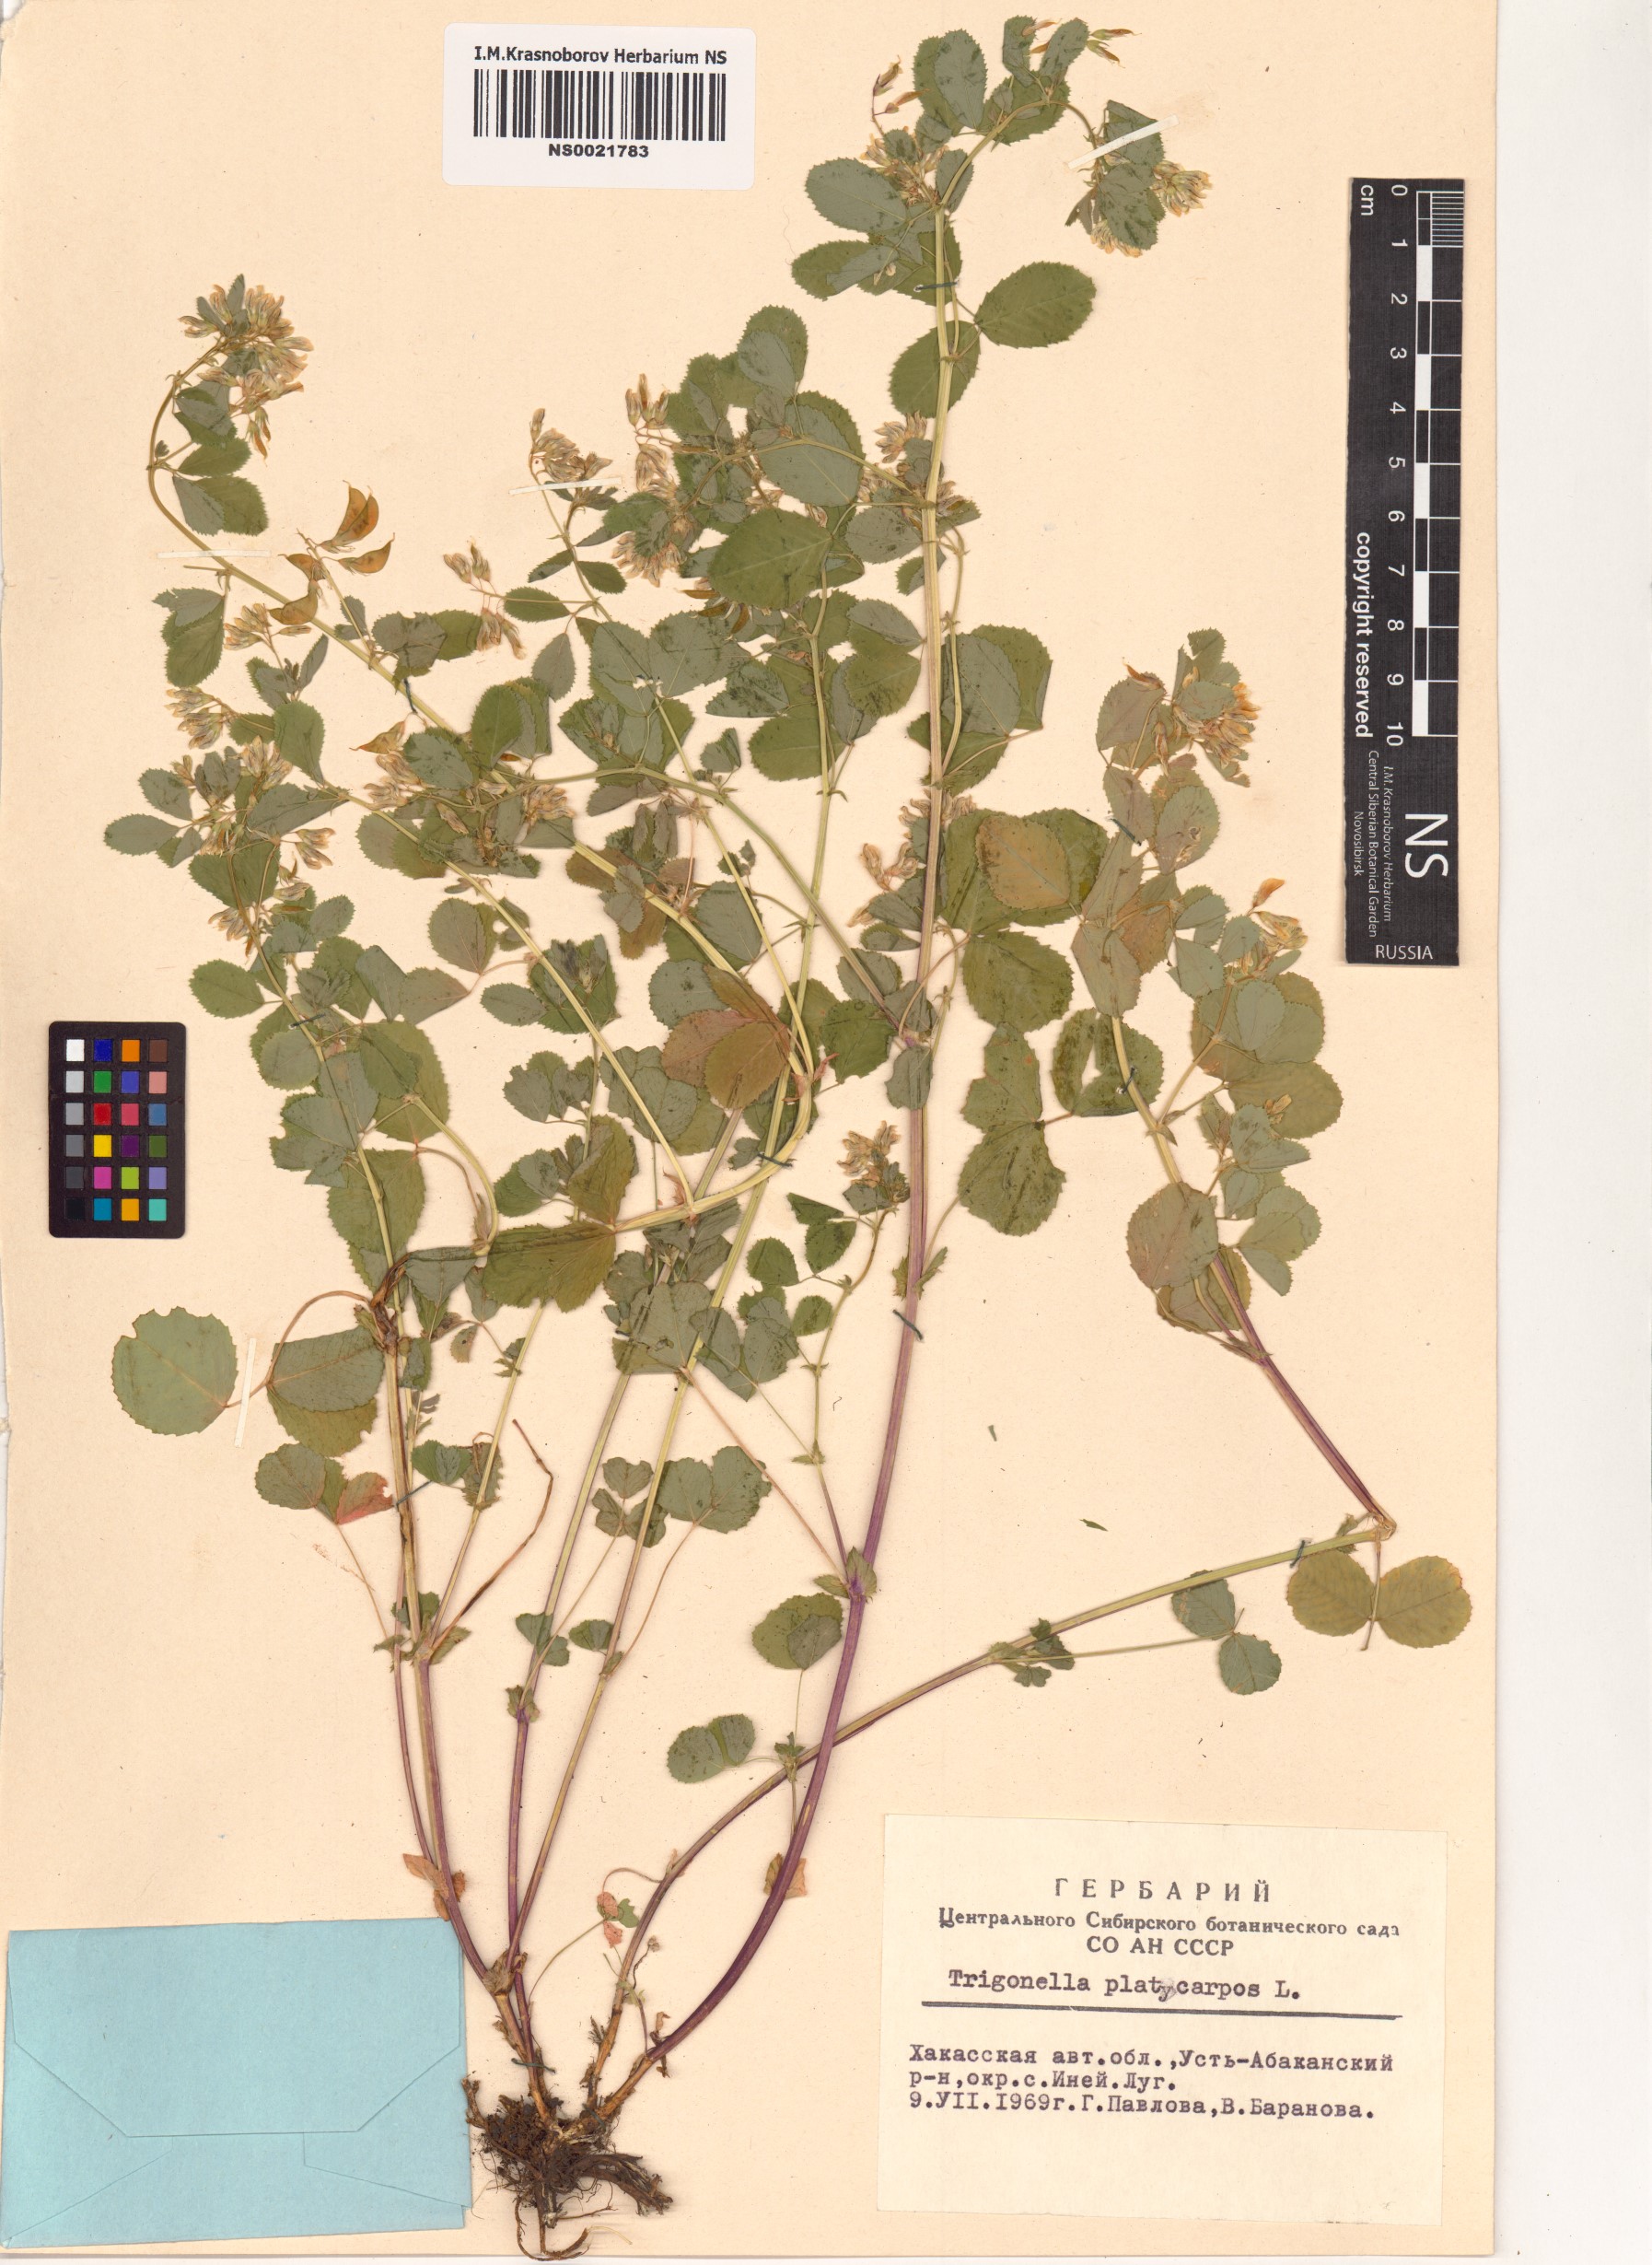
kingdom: Plantae
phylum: Tracheophyta
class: Magnoliopsida
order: Fabales
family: Fabaceae
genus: Medicago
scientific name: Medicago platycarpos
